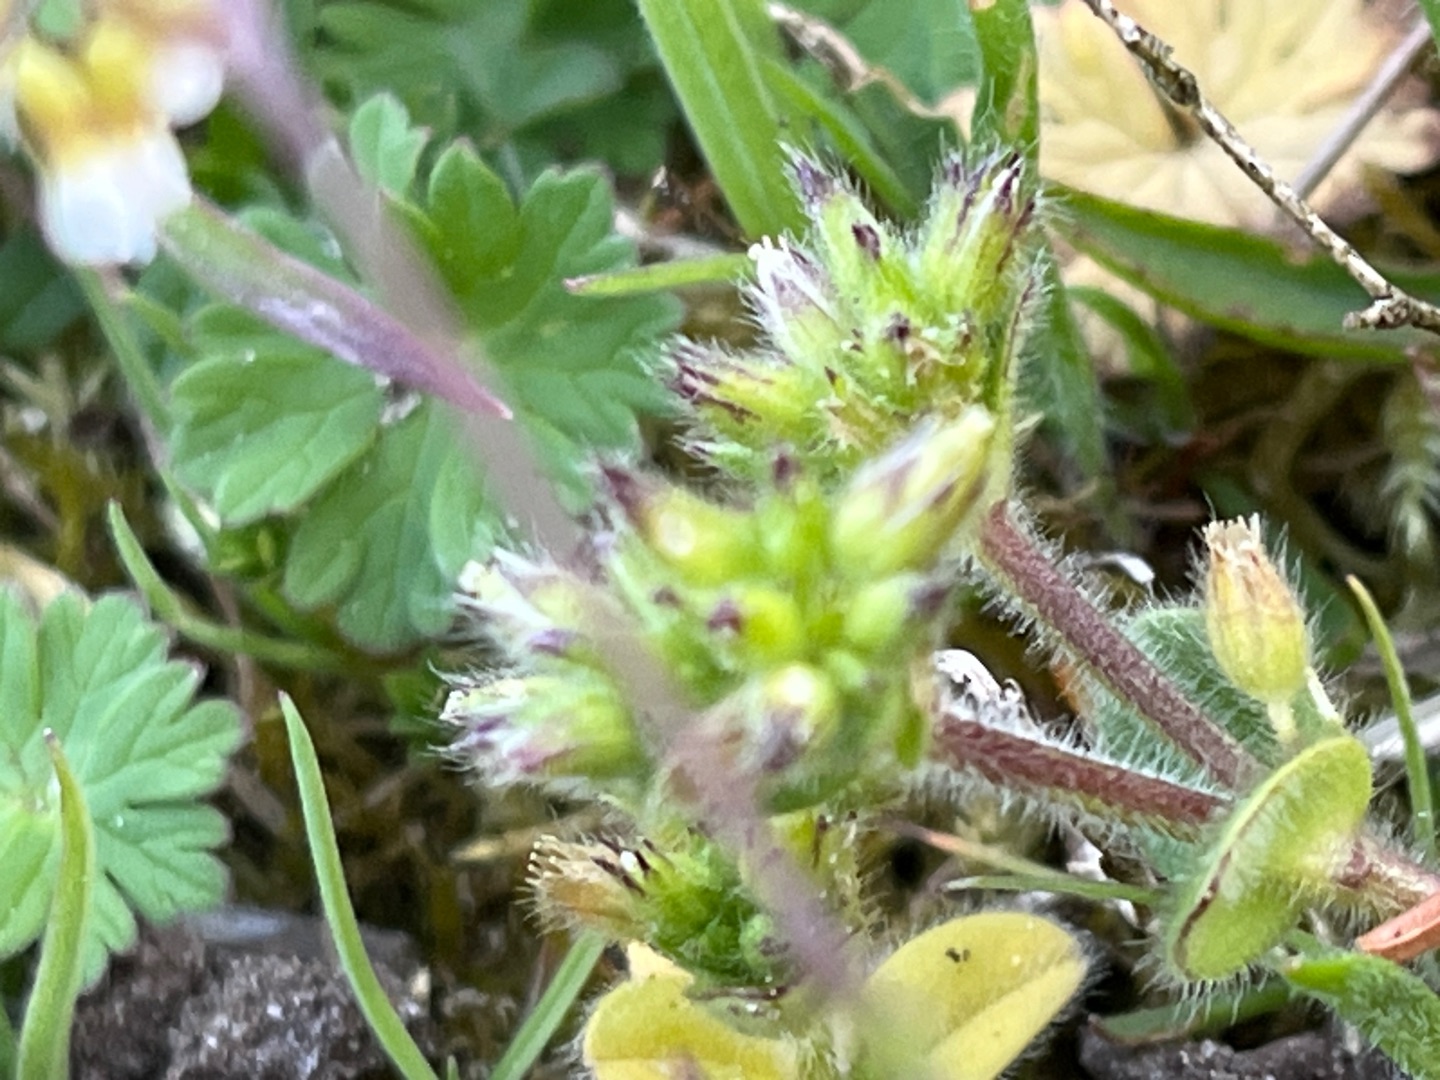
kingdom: Plantae
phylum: Tracheophyta
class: Magnoliopsida
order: Caryophyllales
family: Caryophyllaceae
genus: Cerastium
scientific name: Cerastium glomeratum
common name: Opret hønsetarm
